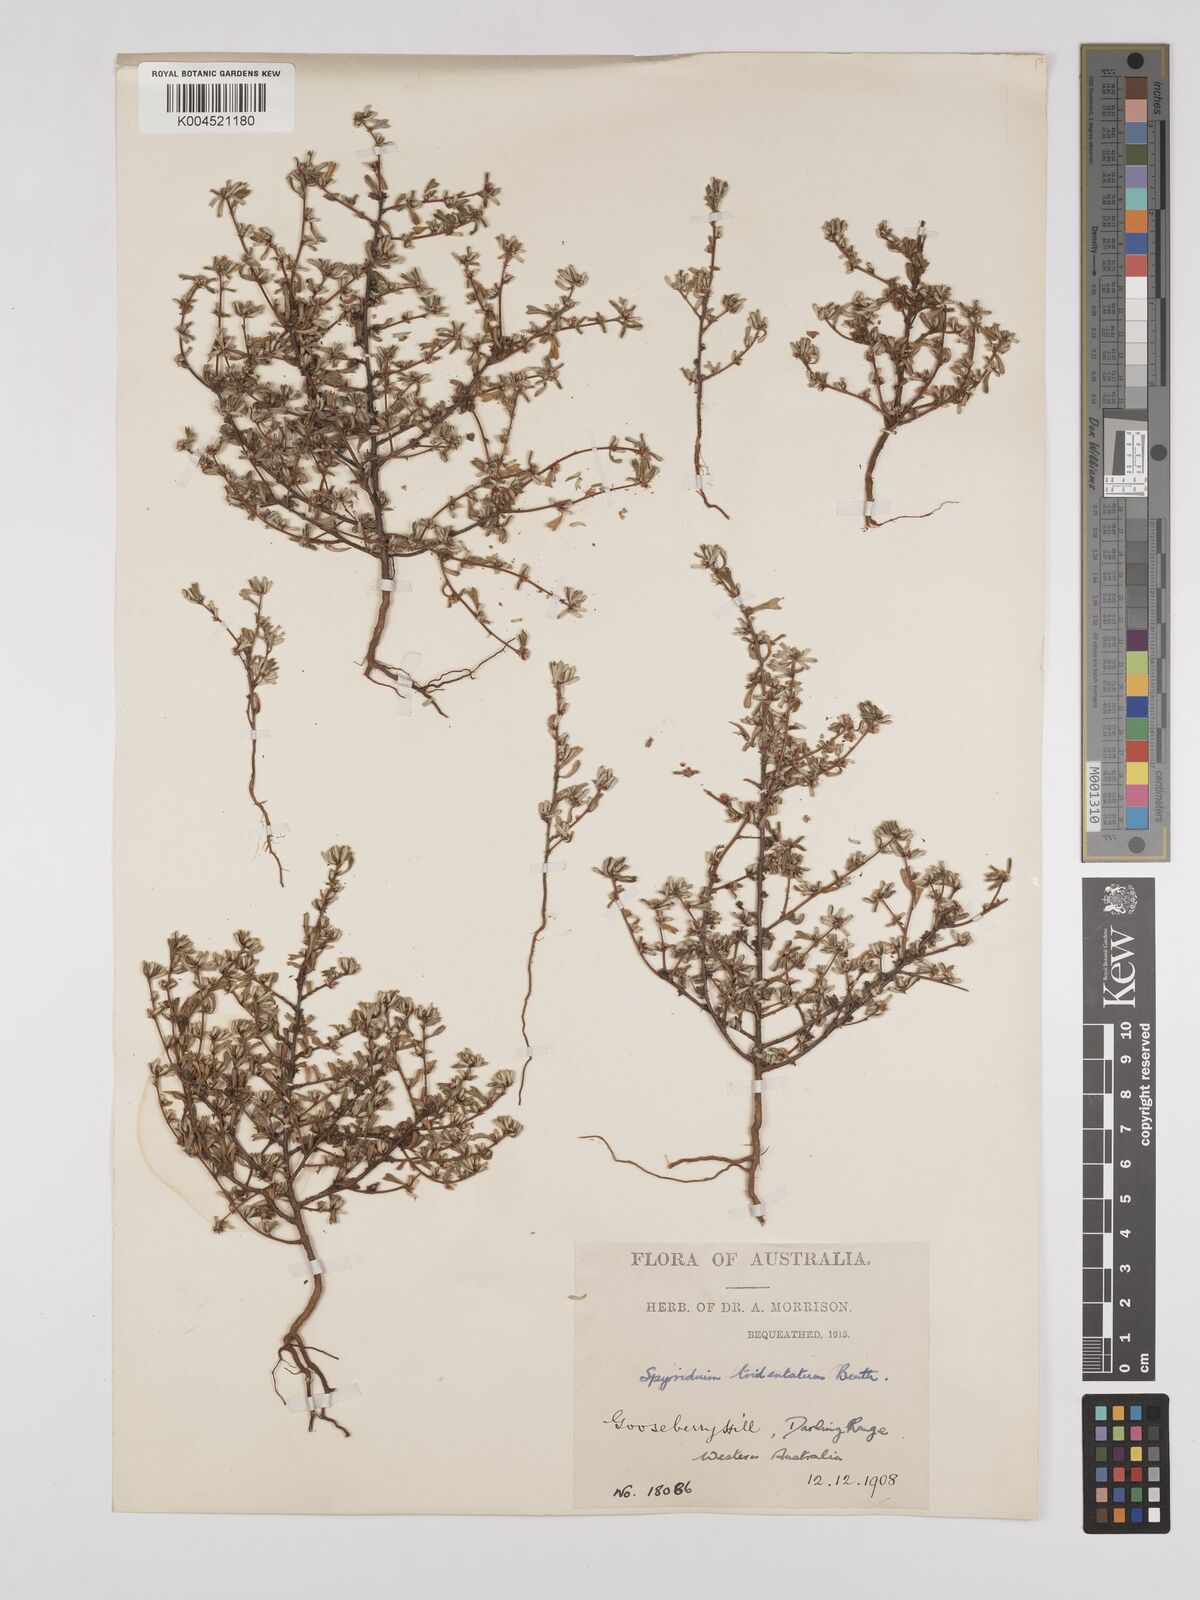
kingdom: Plantae
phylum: Tracheophyta
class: Magnoliopsida
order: Rosales
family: Rhamnaceae
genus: Stenanthemum
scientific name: Stenanthemum tridentatum
